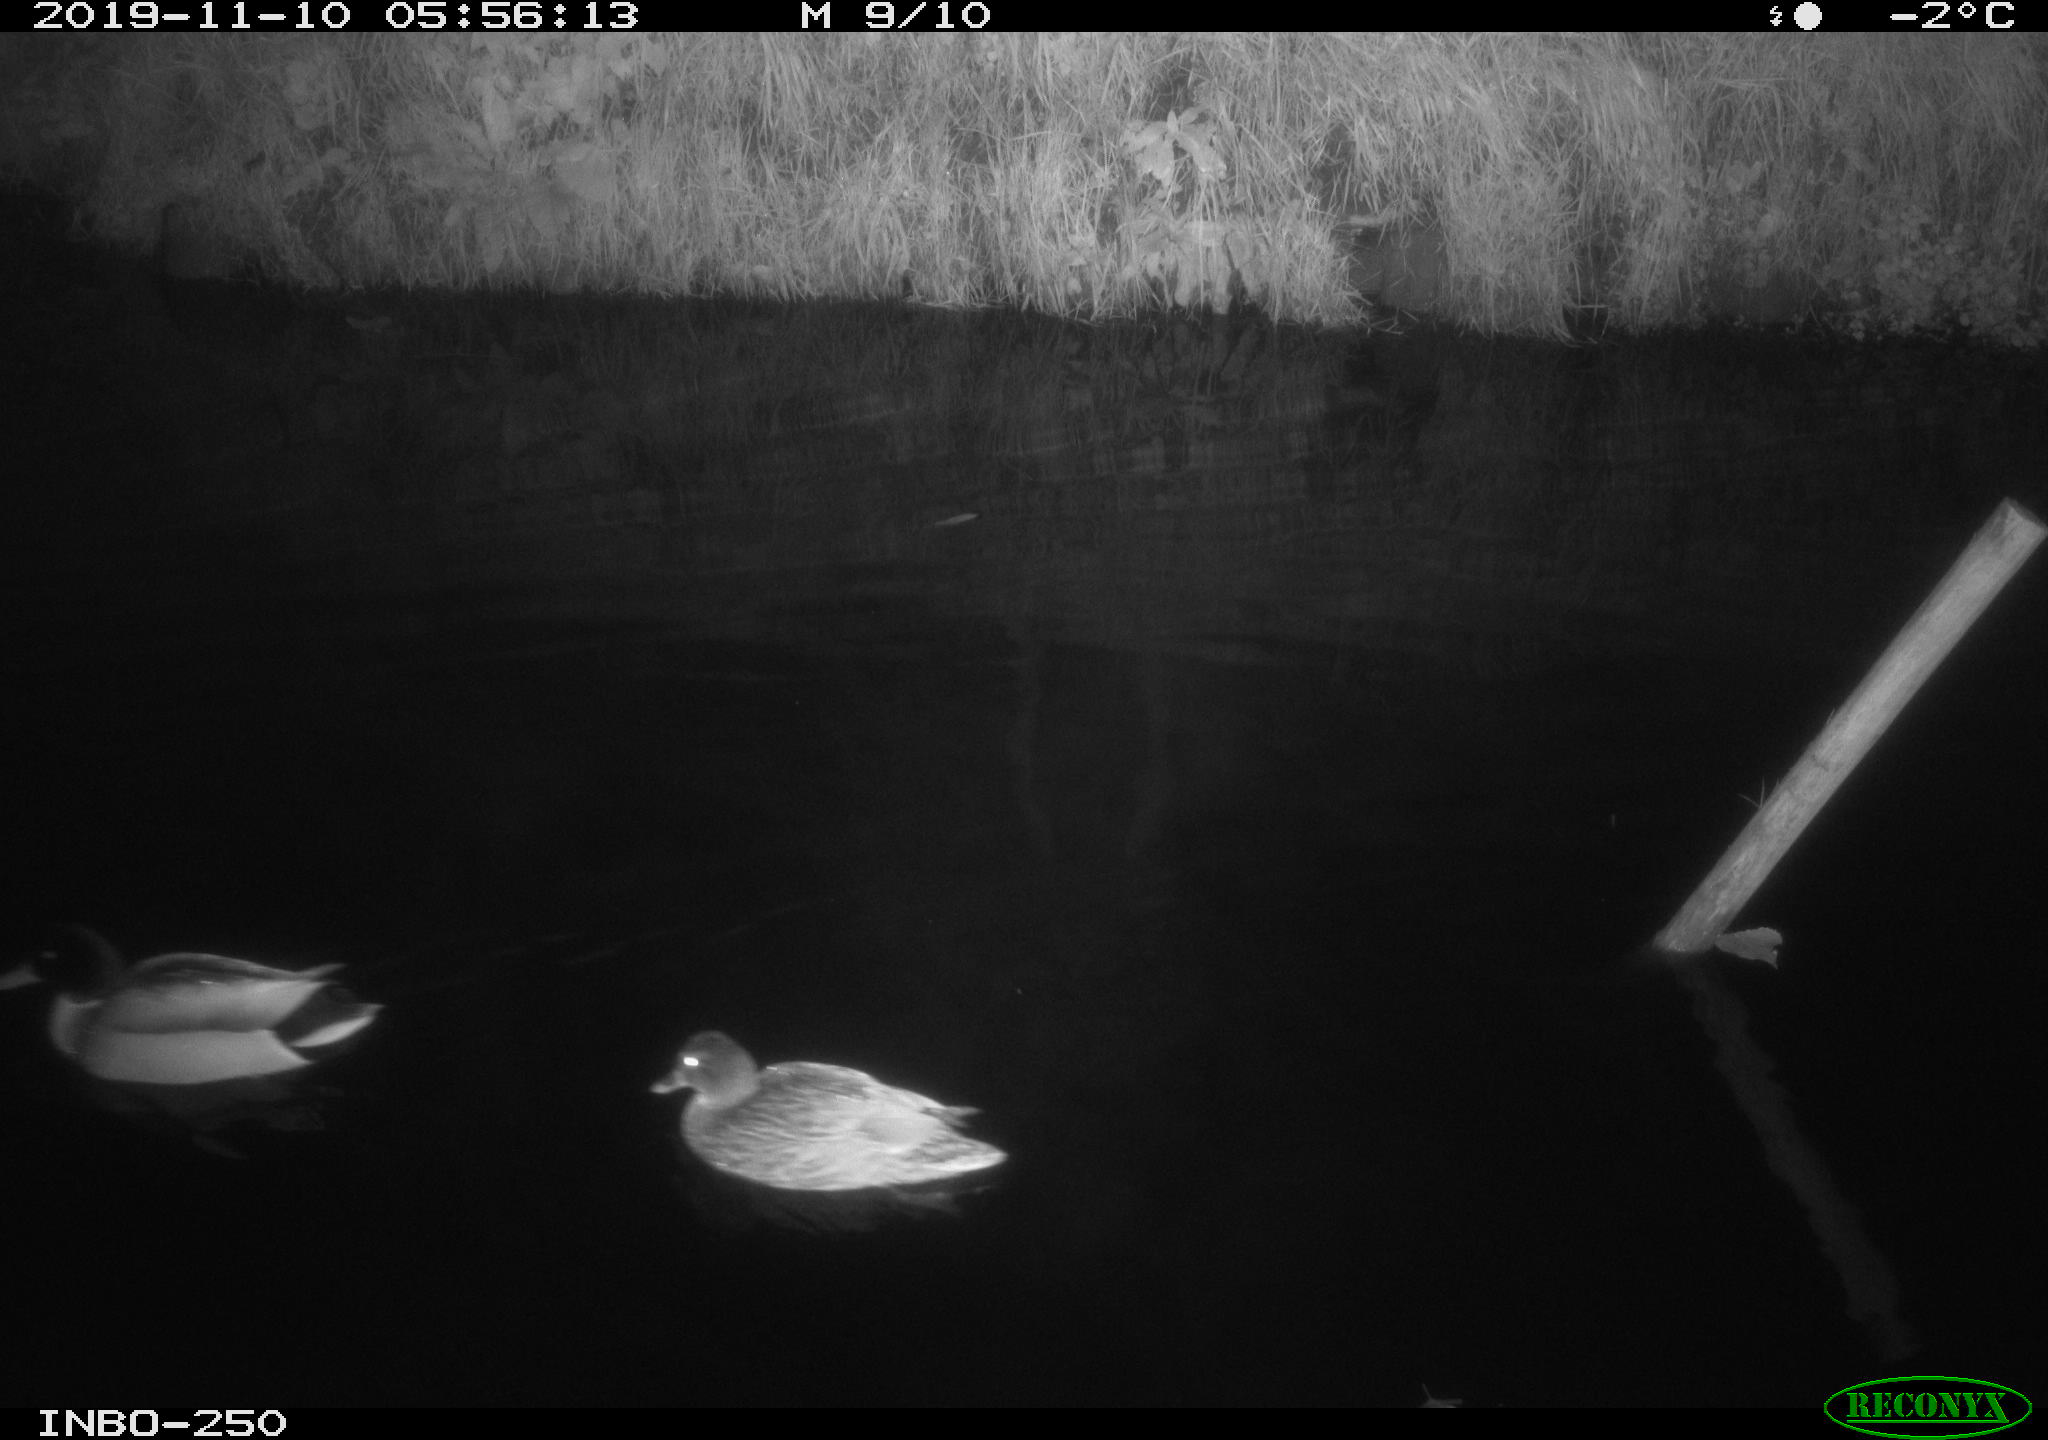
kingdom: Animalia
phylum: Chordata
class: Aves
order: Anseriformes
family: Anatidae
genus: Anas
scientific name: Anas platyrhynchos
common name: Mallard
